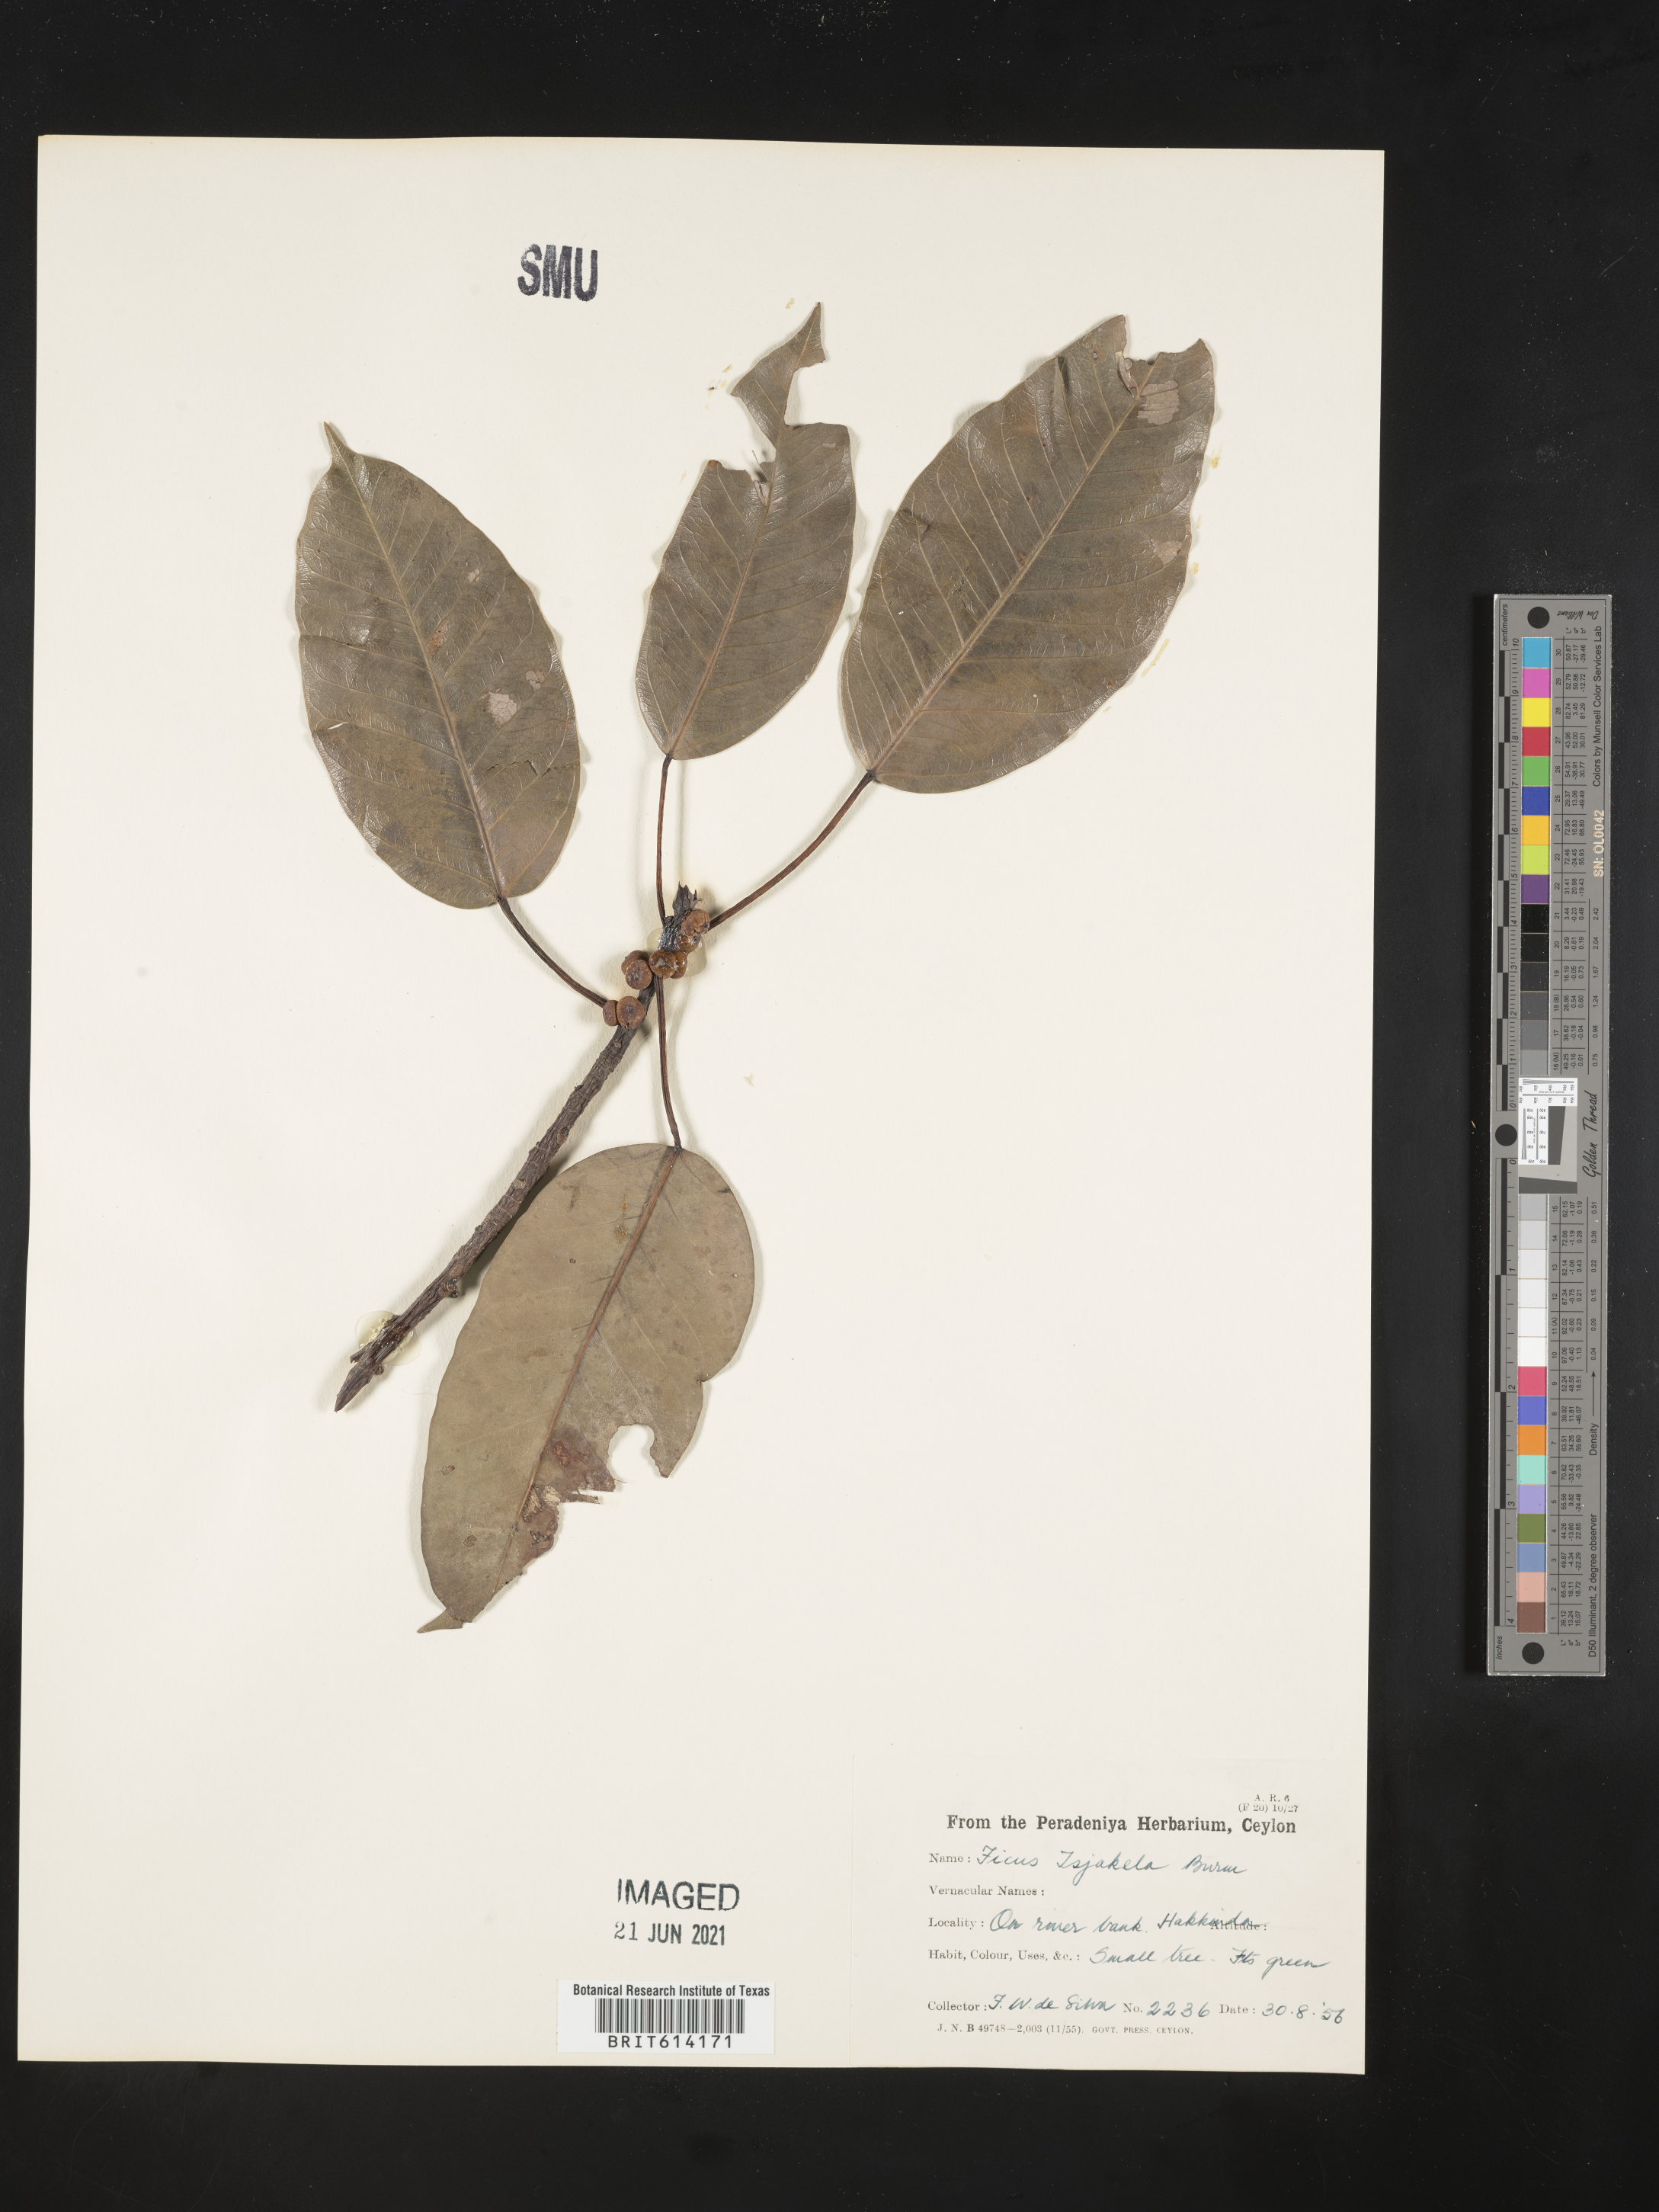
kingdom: Plantae
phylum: Tracheophyta
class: Magnoliopsida
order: Rosales
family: Moraceae
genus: Ficus
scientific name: Ficus tsjakela
